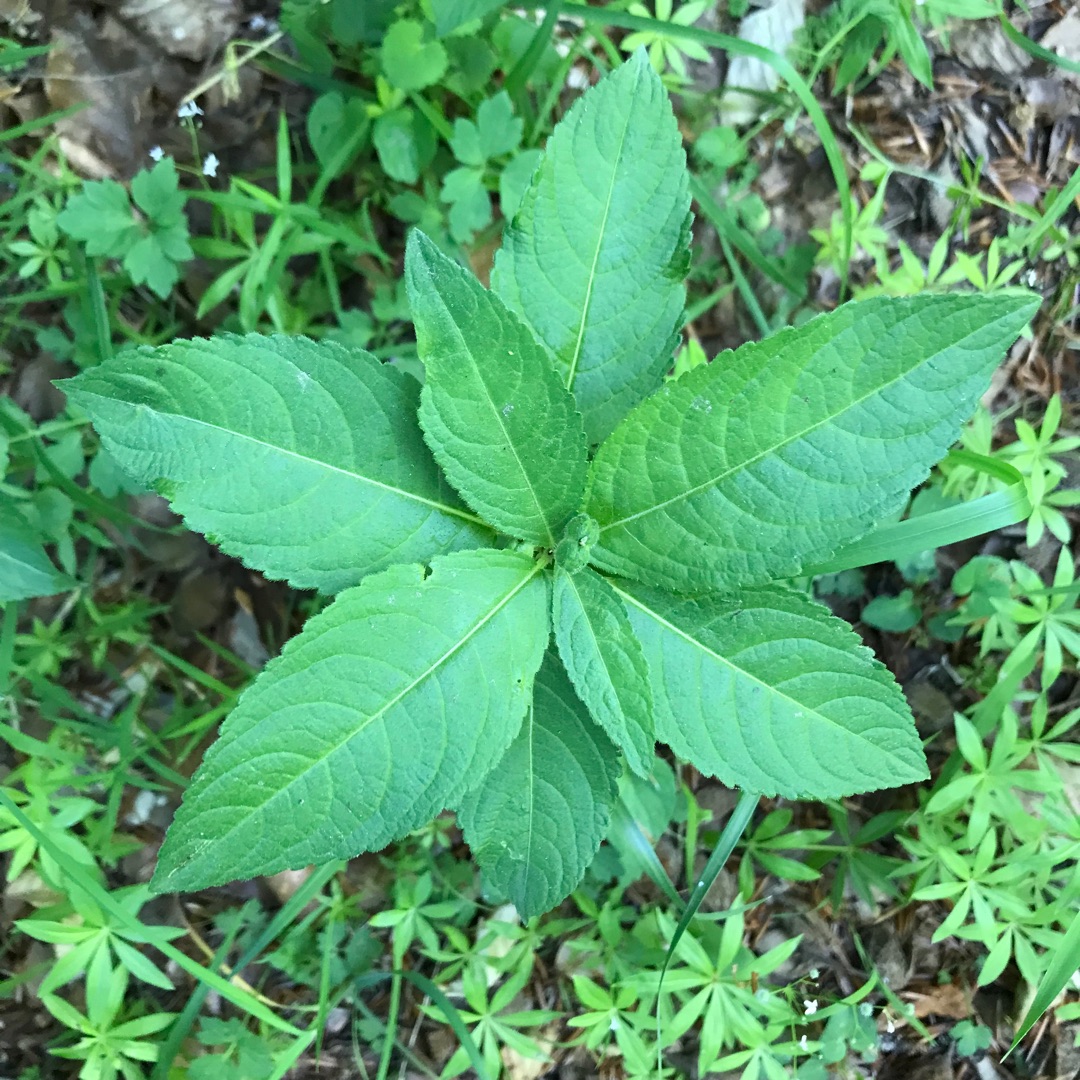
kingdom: Plantae
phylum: Tracheophyta
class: Magnoliopsida
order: Malpighiales
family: Euphorbiaceae
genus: Mercurialis
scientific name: Mercurialis perennis
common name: Almindelig bingelurt
